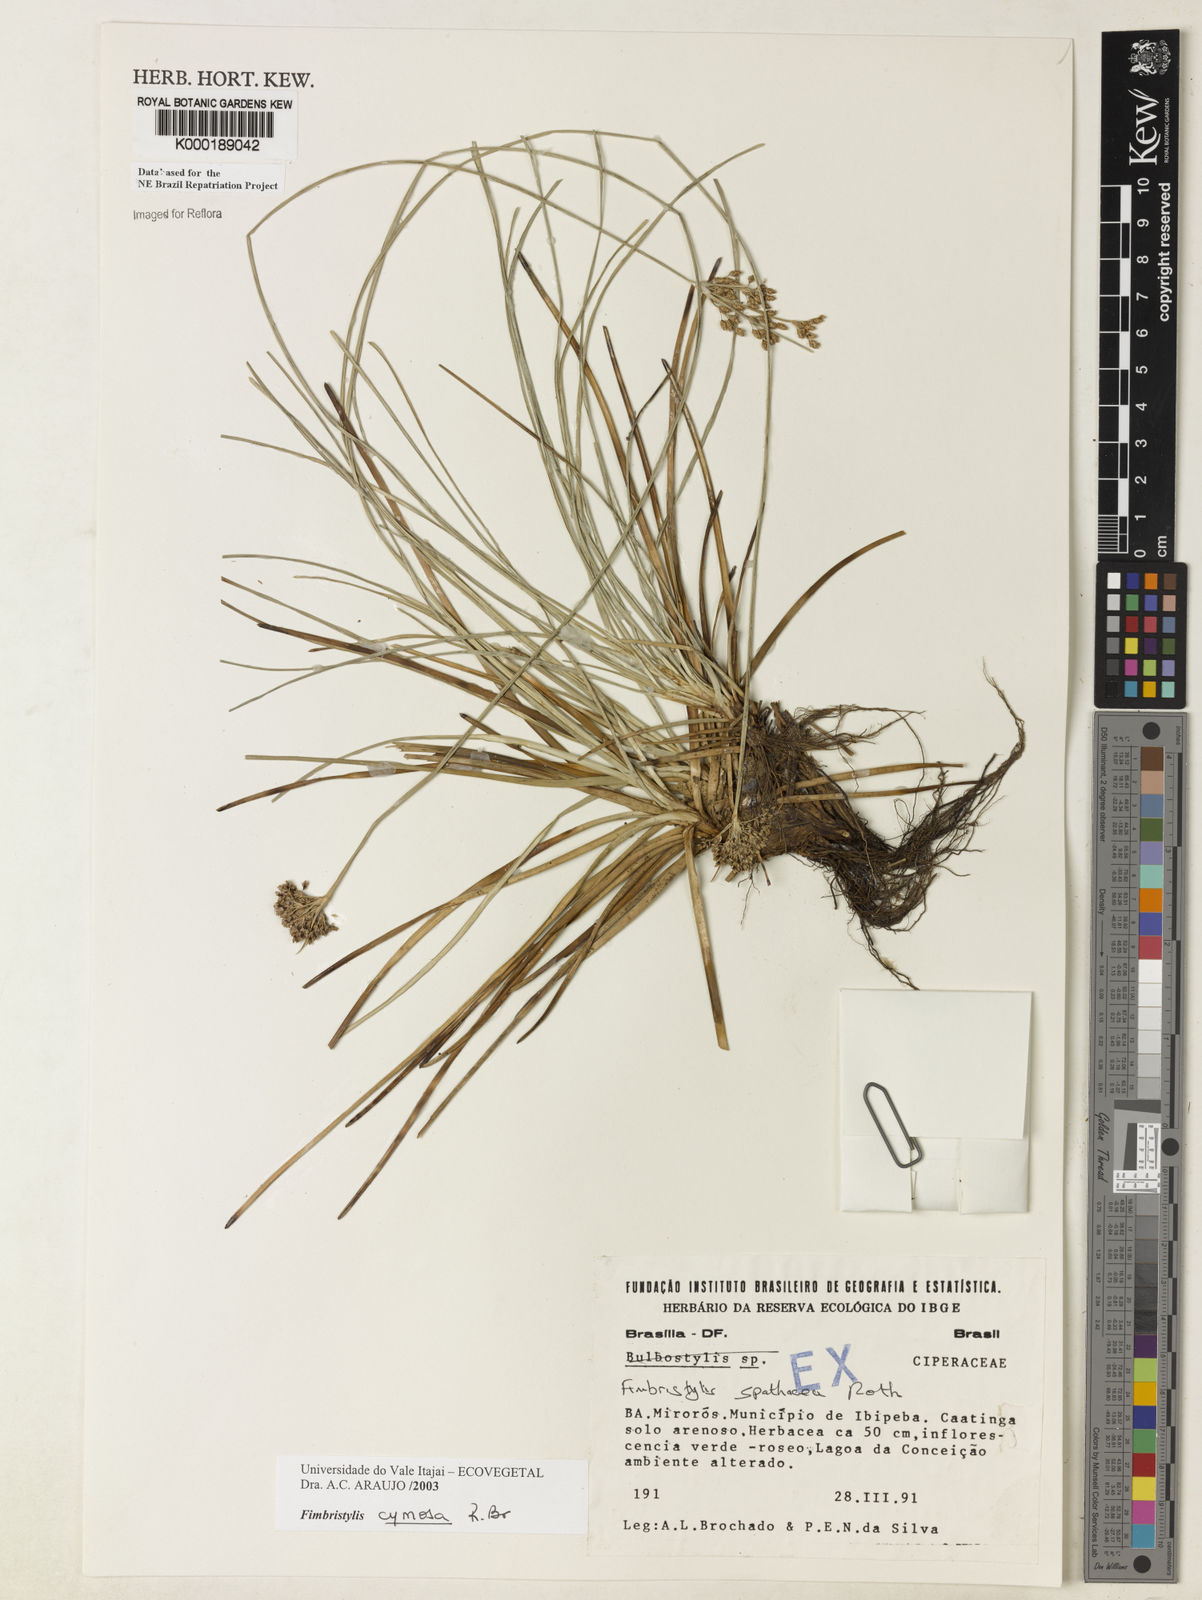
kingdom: Plantae
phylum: Tracheophyta
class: Liliopsida
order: Poales
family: Cyperaceae
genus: Fimbristylis
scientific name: Fimbristylis cymosa
